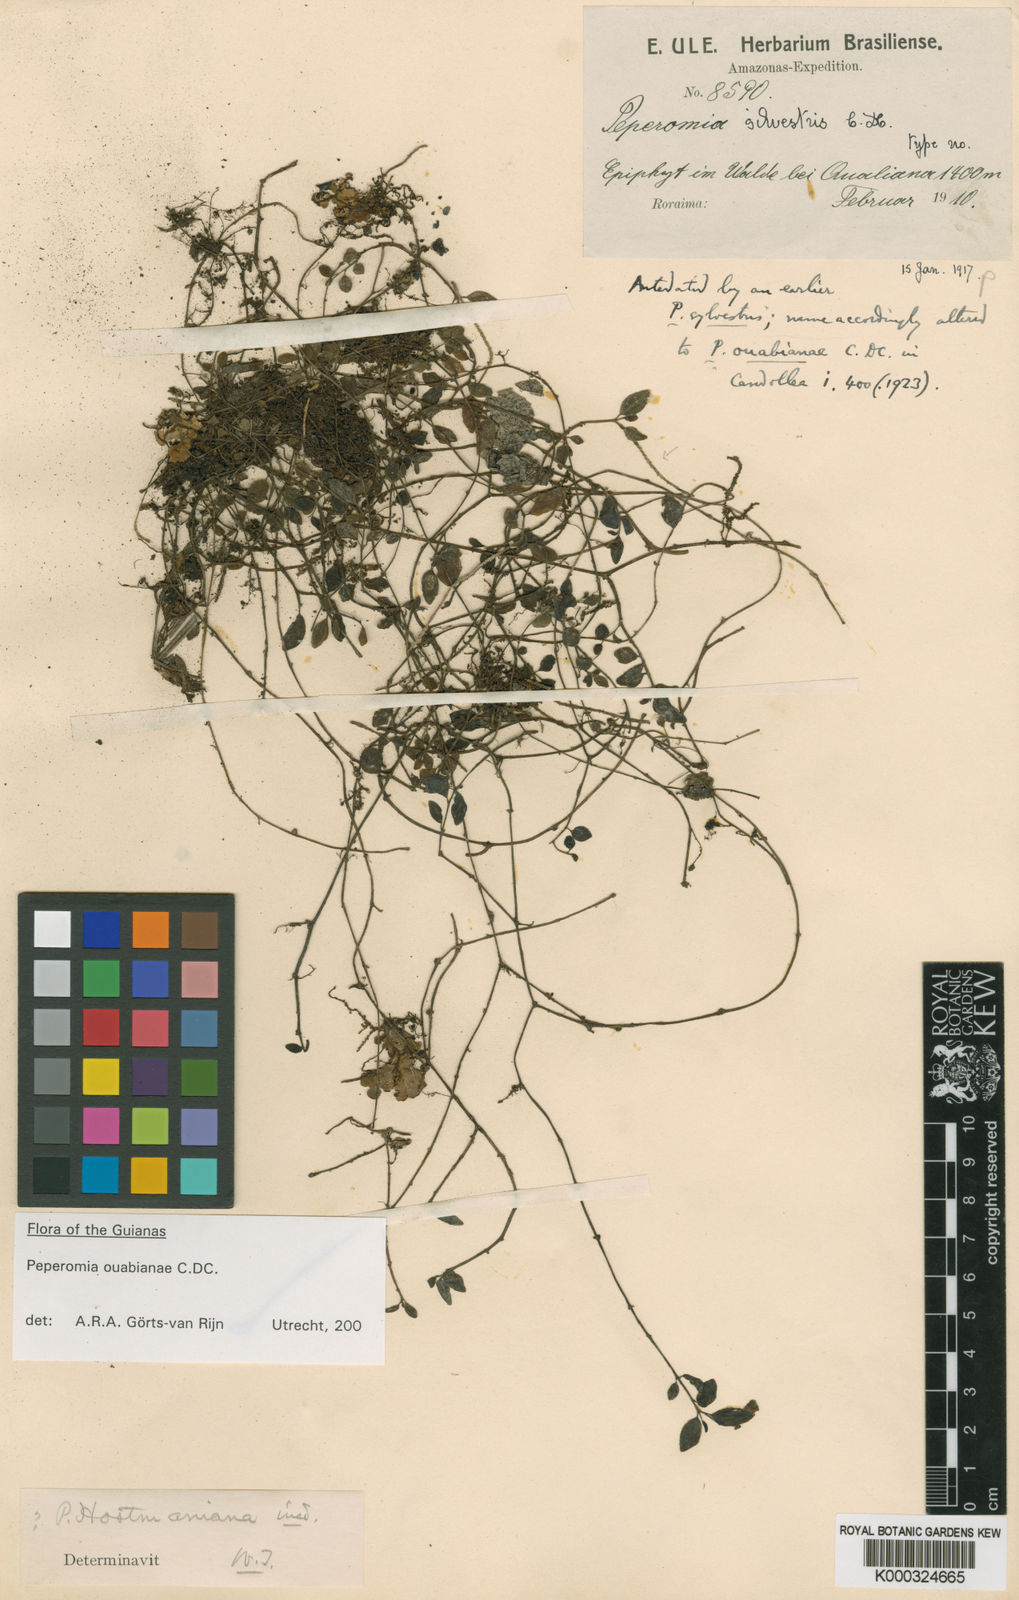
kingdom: Plantae
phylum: Tracheophyta
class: Magnoliopsida
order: Piperales
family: Piperaceae
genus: Peperomia
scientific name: Peperomia ouabianae
